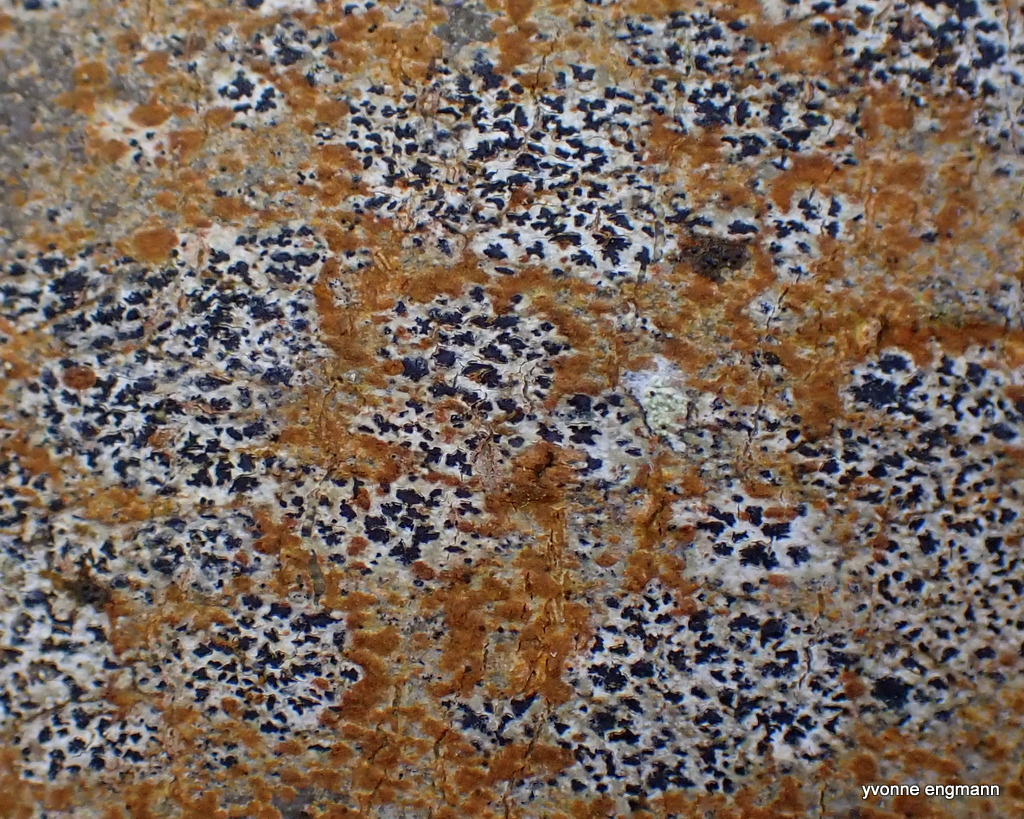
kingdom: Fungi
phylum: Ascomycota
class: Arthoniomycetes
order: Arthoniales
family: Arthoniaceae
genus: Arthonia
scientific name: Arthonia radiata
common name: stjerne-pletlav
